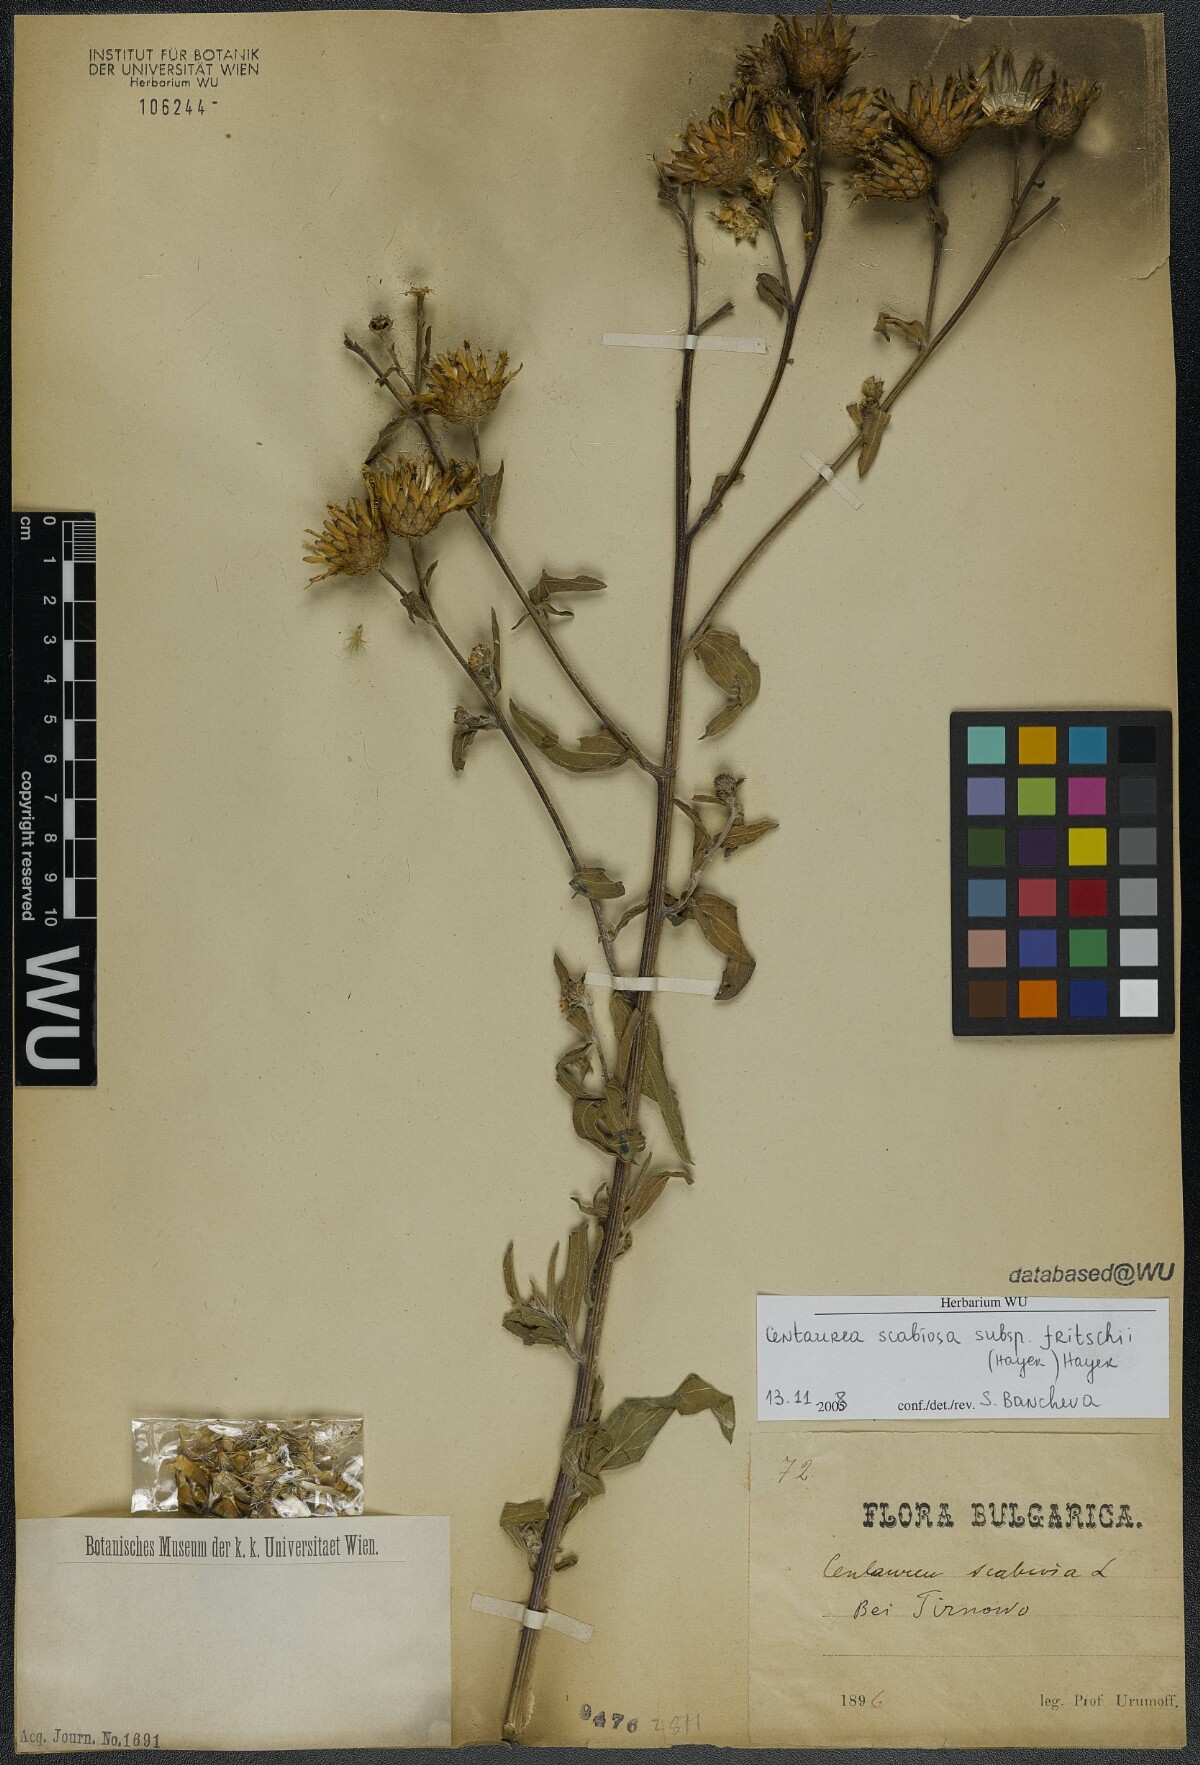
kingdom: Plantae
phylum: Tracheophyta
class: Magnoliopsida
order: Asterales
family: Asteraceae
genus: Centaurea
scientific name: Centaurea scabiosa
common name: Greater knapweed
